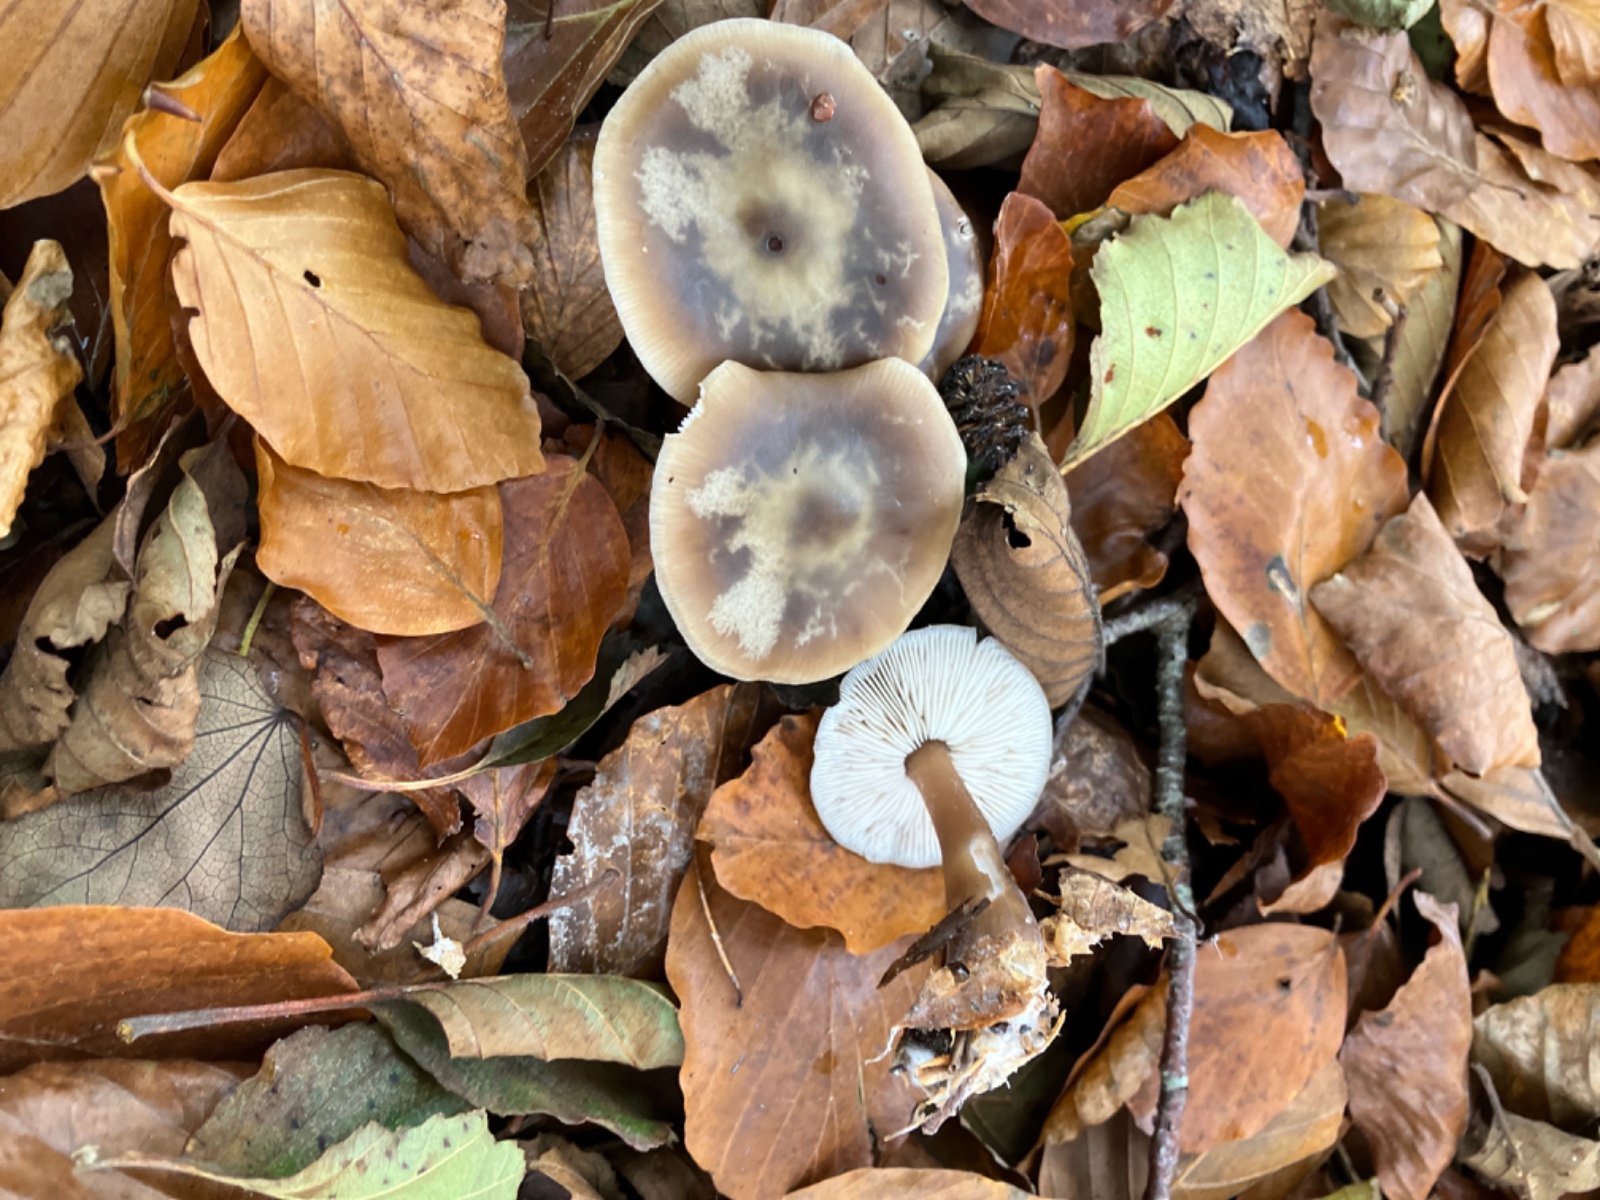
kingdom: Fungi
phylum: Basidiomycota
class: Agaricomycetes
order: Agaricales
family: Omphalotaceae
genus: Rhodocollybia
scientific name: Rhodocollybia asema
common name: horngrå fladhat
